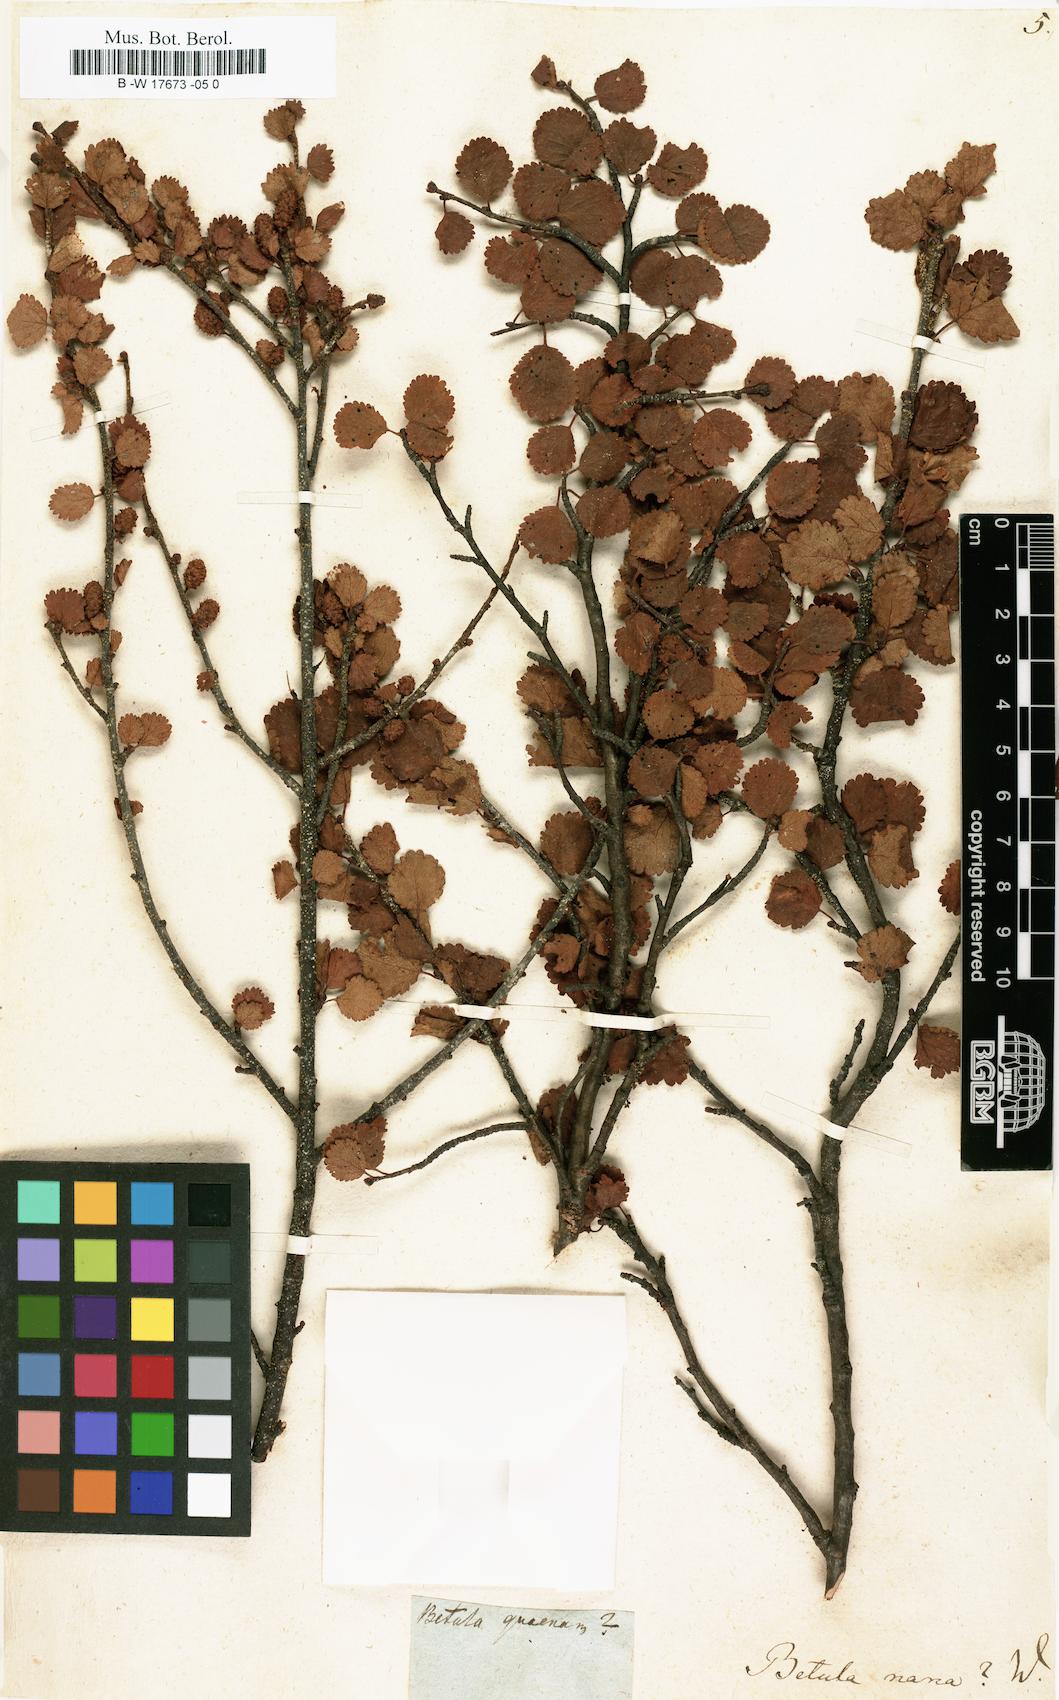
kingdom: Plantae
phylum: Tracheophyta
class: Magnoliopsida
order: Fagales
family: Betulaceae
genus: Betula
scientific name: Betula nana
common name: Arctic dwarf birch
